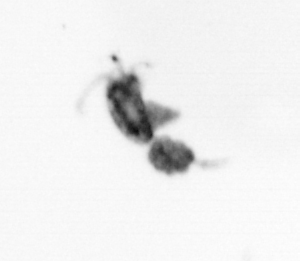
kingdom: Animalia
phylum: Arthropoda
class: Copepoda
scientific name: Copepoda
